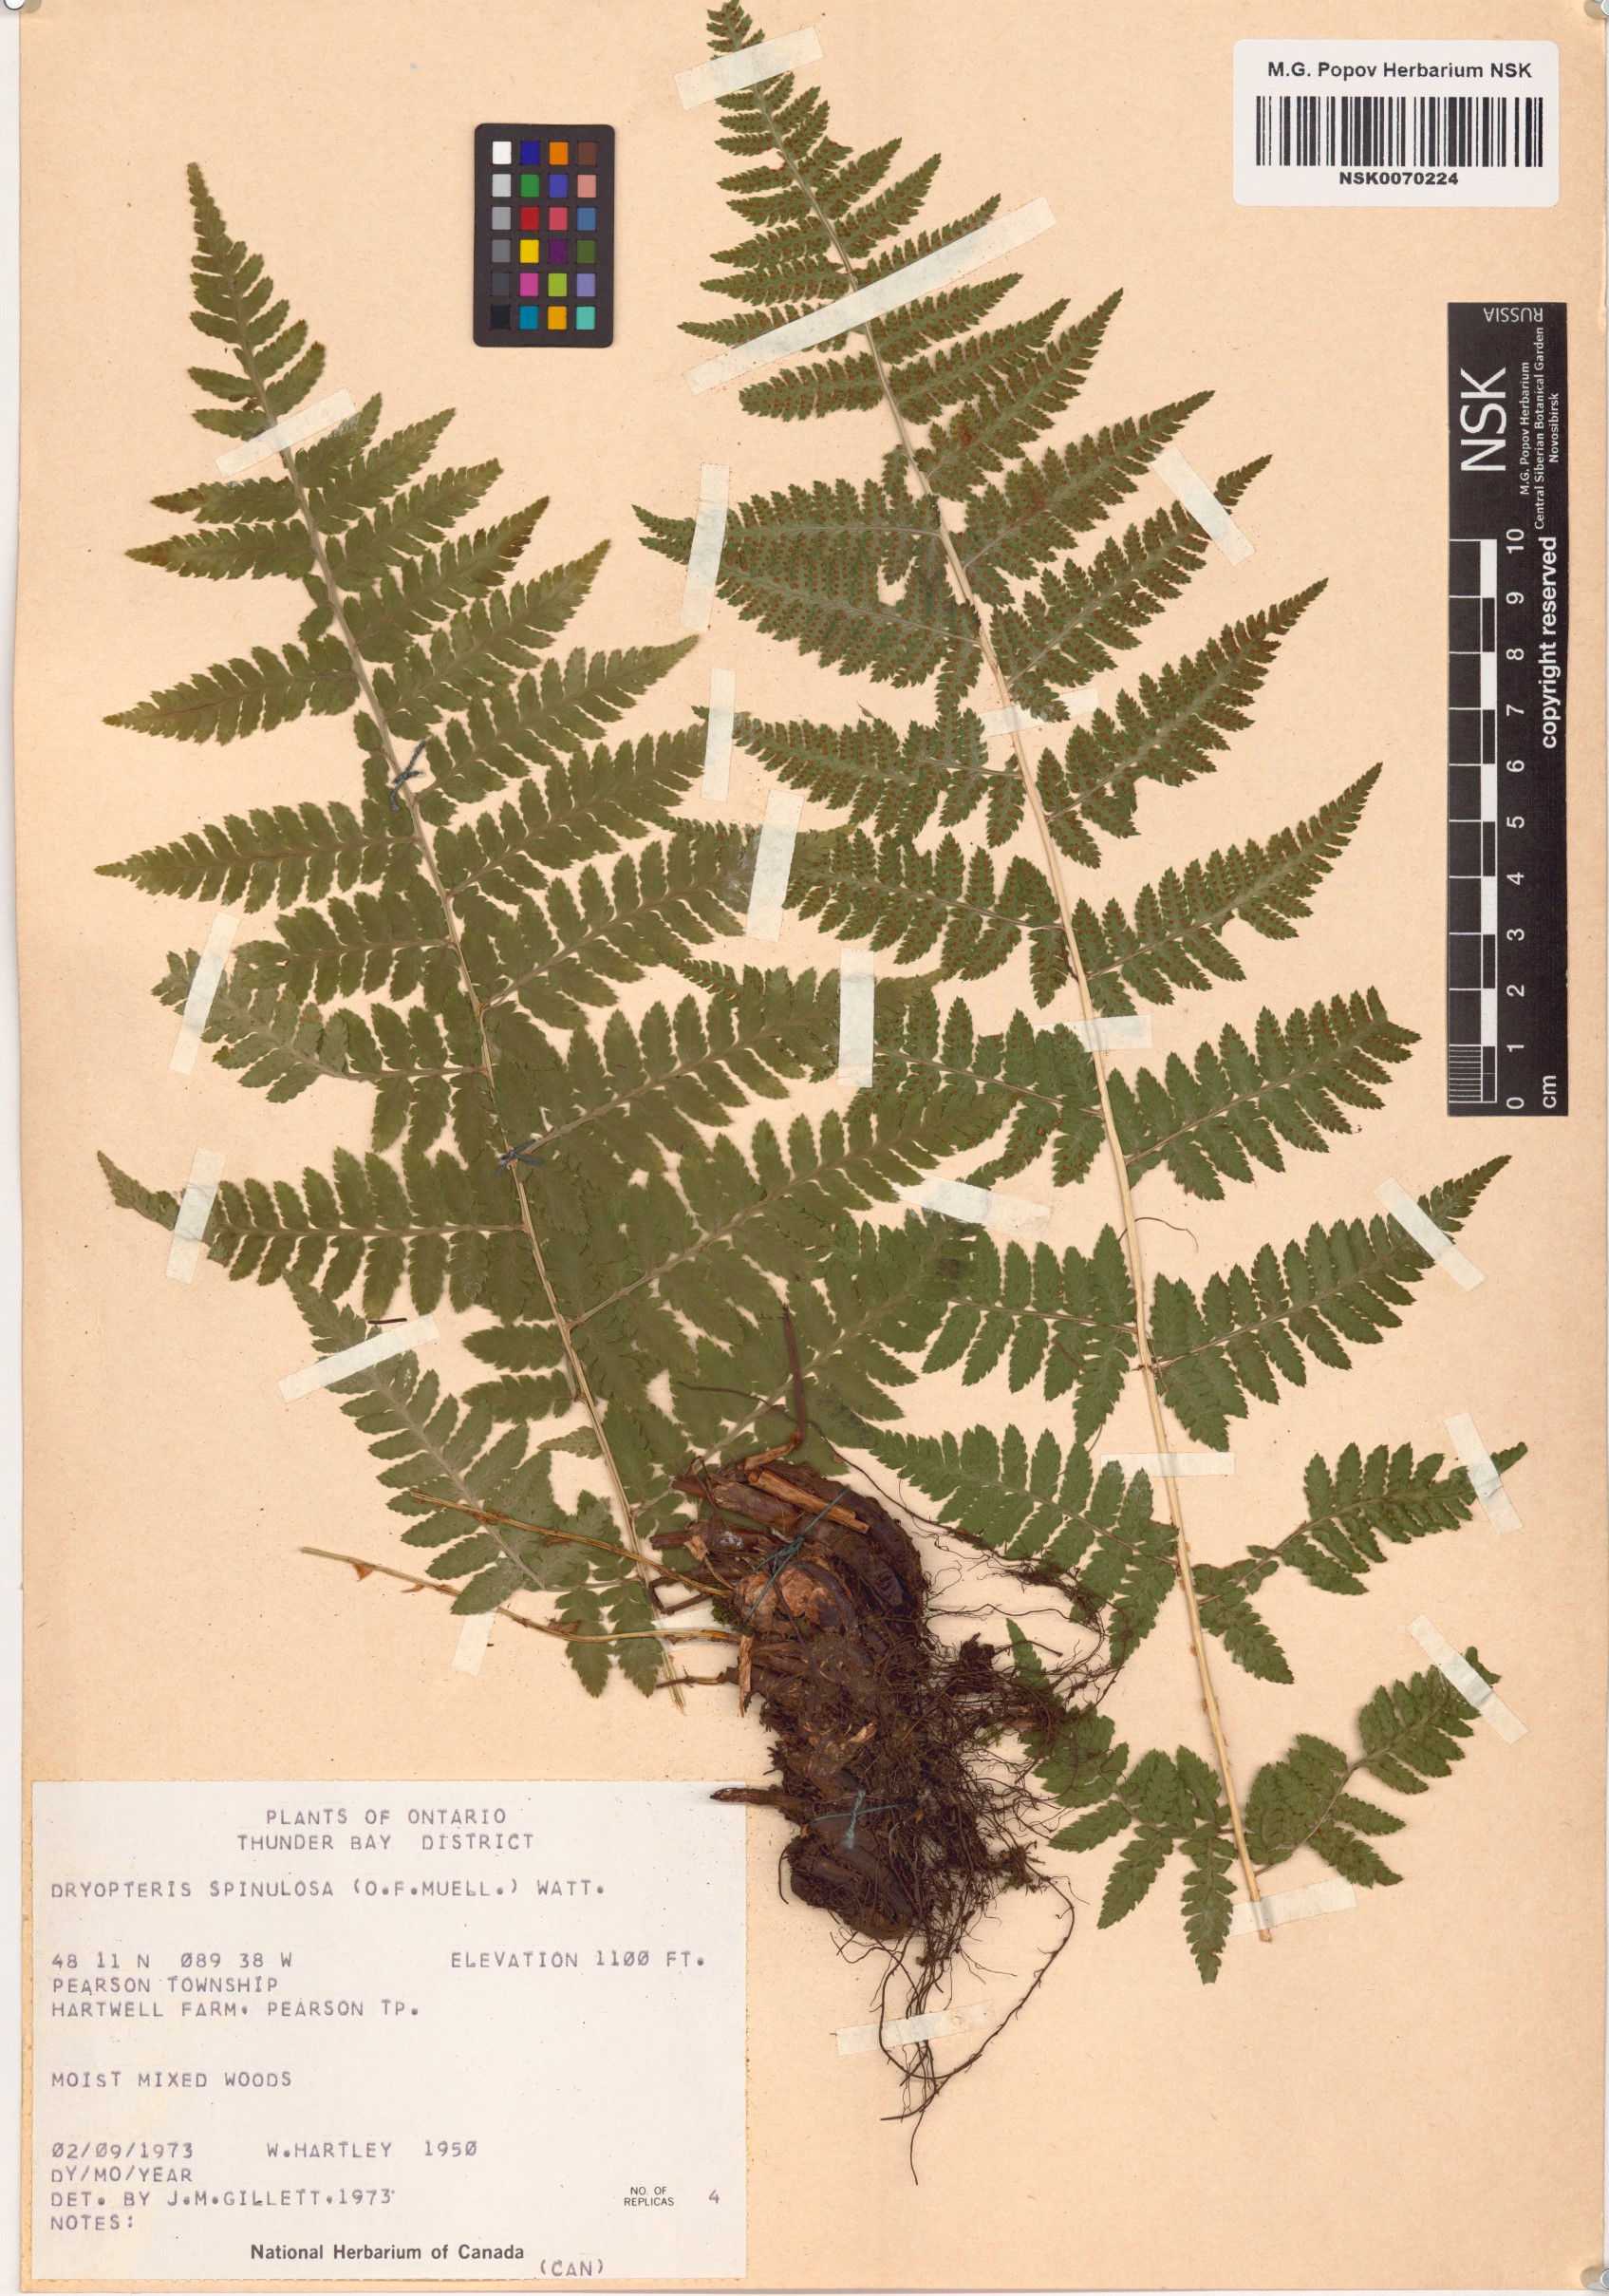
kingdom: Plantae
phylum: Tracheophyta
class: Polypodiopsida
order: Polypodiales
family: Dryopteridaceae
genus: Dryopteris
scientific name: Dryopteris carthusiana
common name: Narrow buckler-fern
